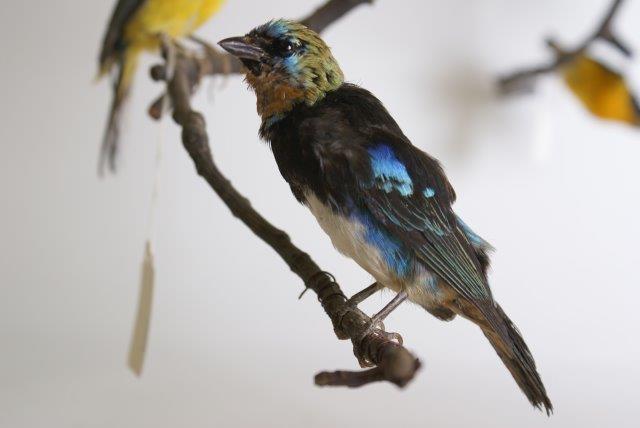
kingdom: Animalia
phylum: Chordata
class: Aves
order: Passeriformes
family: Thraupidae
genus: Tangara
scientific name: Tangara
